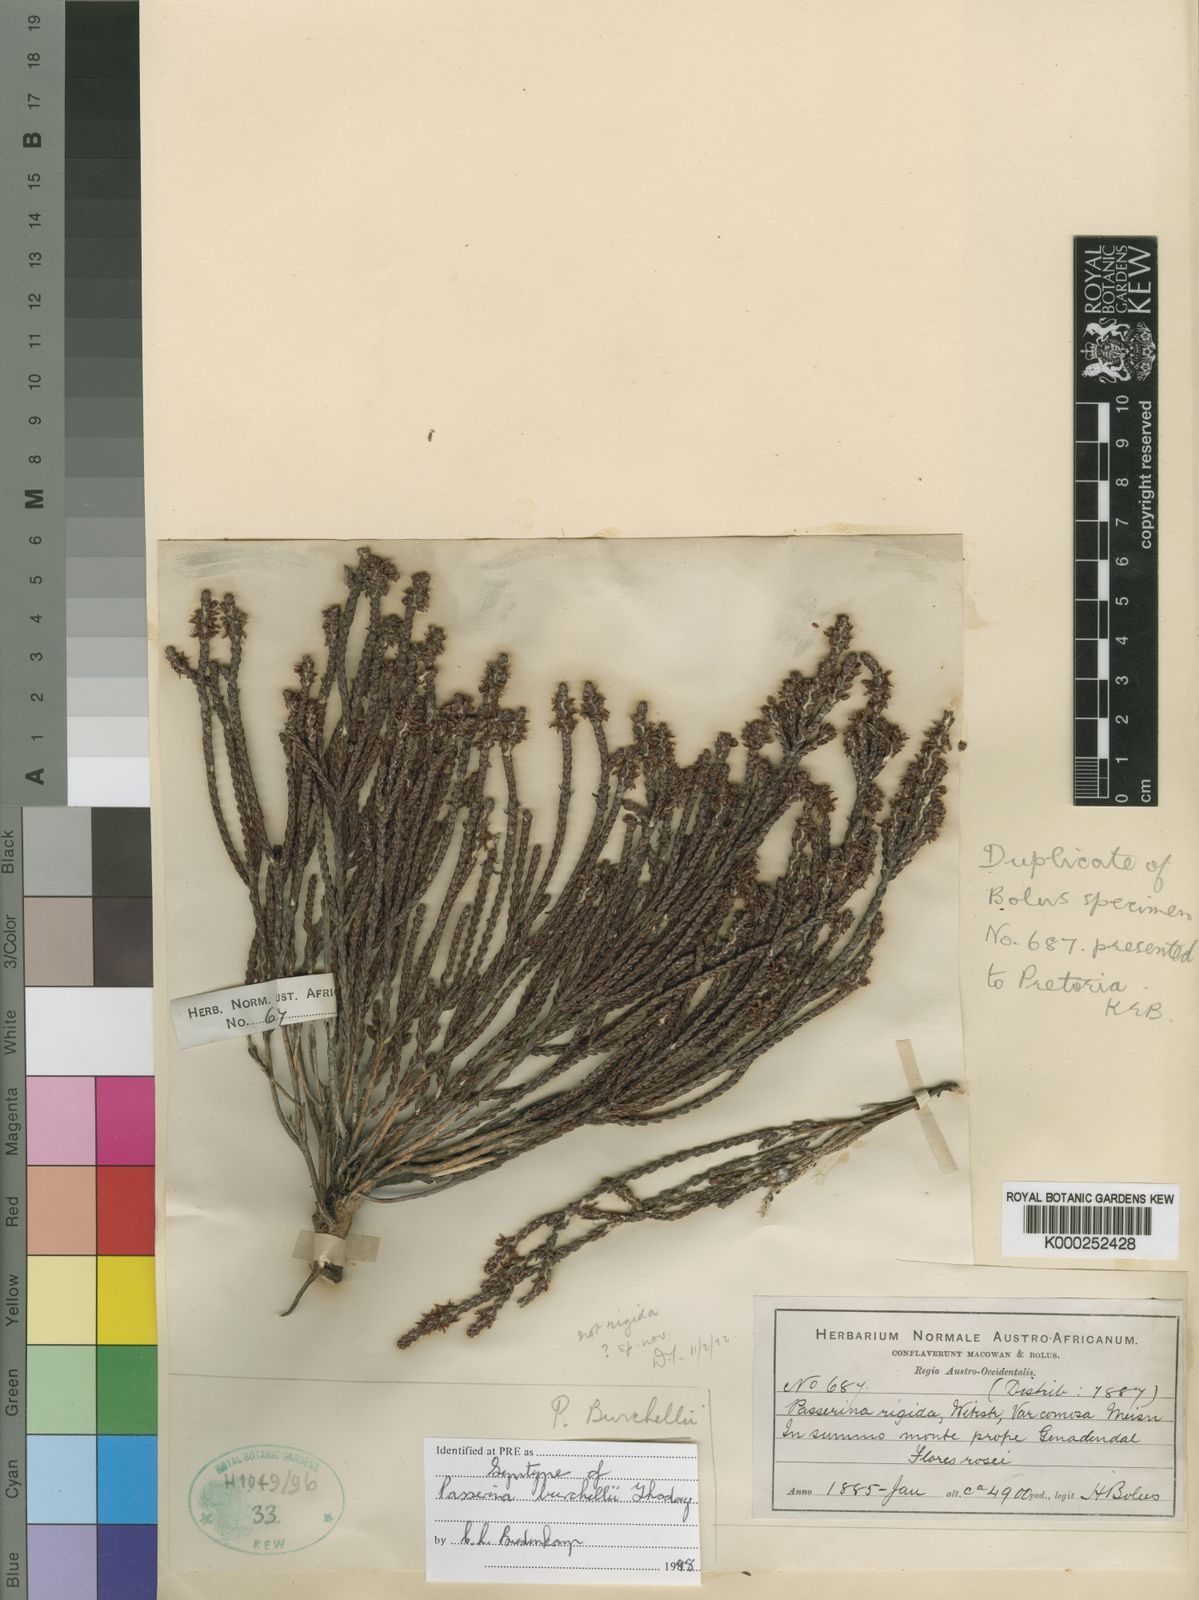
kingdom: Plantae
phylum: Tracheophyta
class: Magnoliopsida
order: Malvales
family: Thymelaeaceae
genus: Passerina
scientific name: Passerina burchellii
